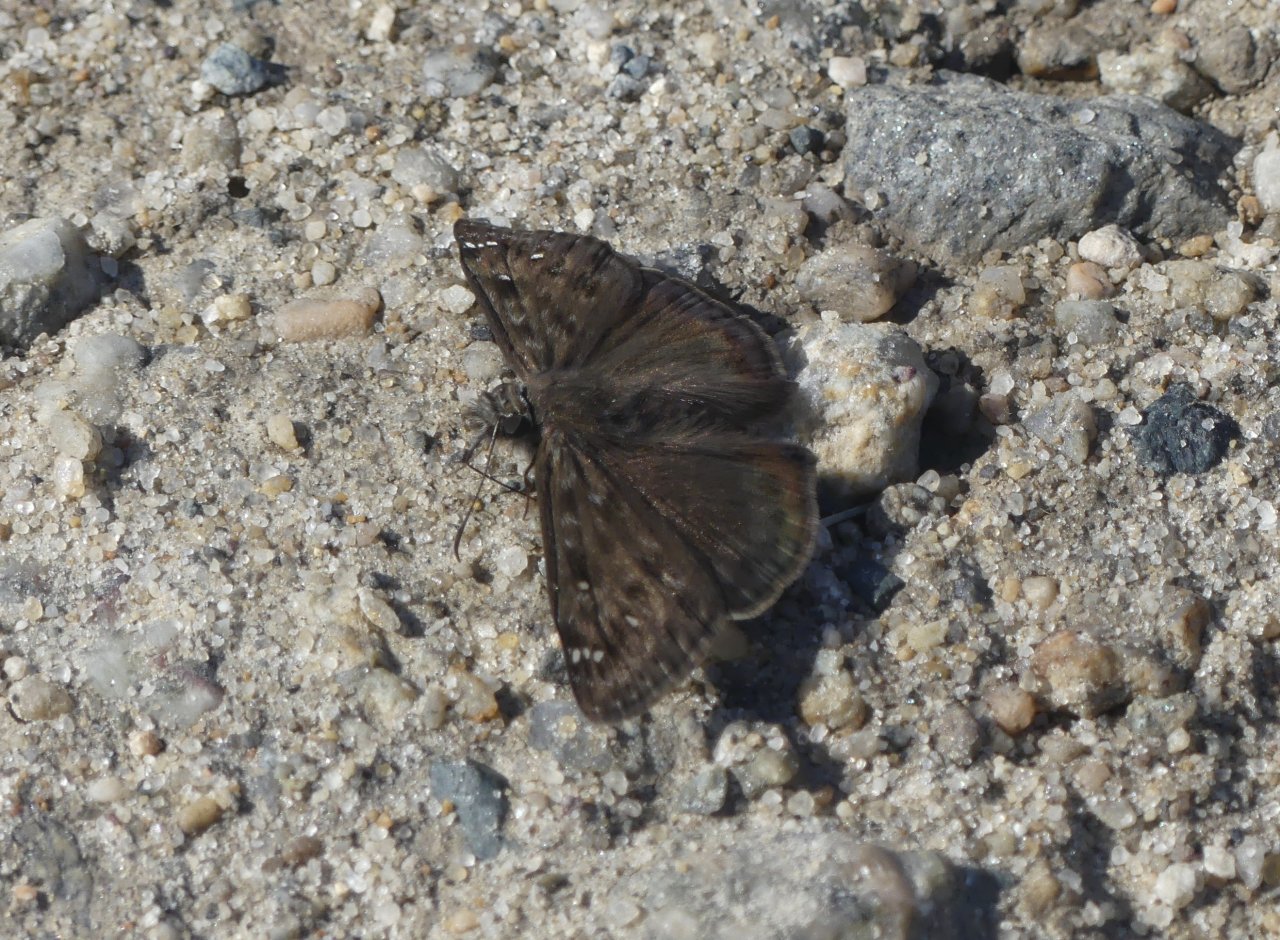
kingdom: Animalia
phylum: Arthropoda
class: Insecta
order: Lepidoptera
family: Hesperiidae
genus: Gesta
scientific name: Gesta
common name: Horace's Duskywing
